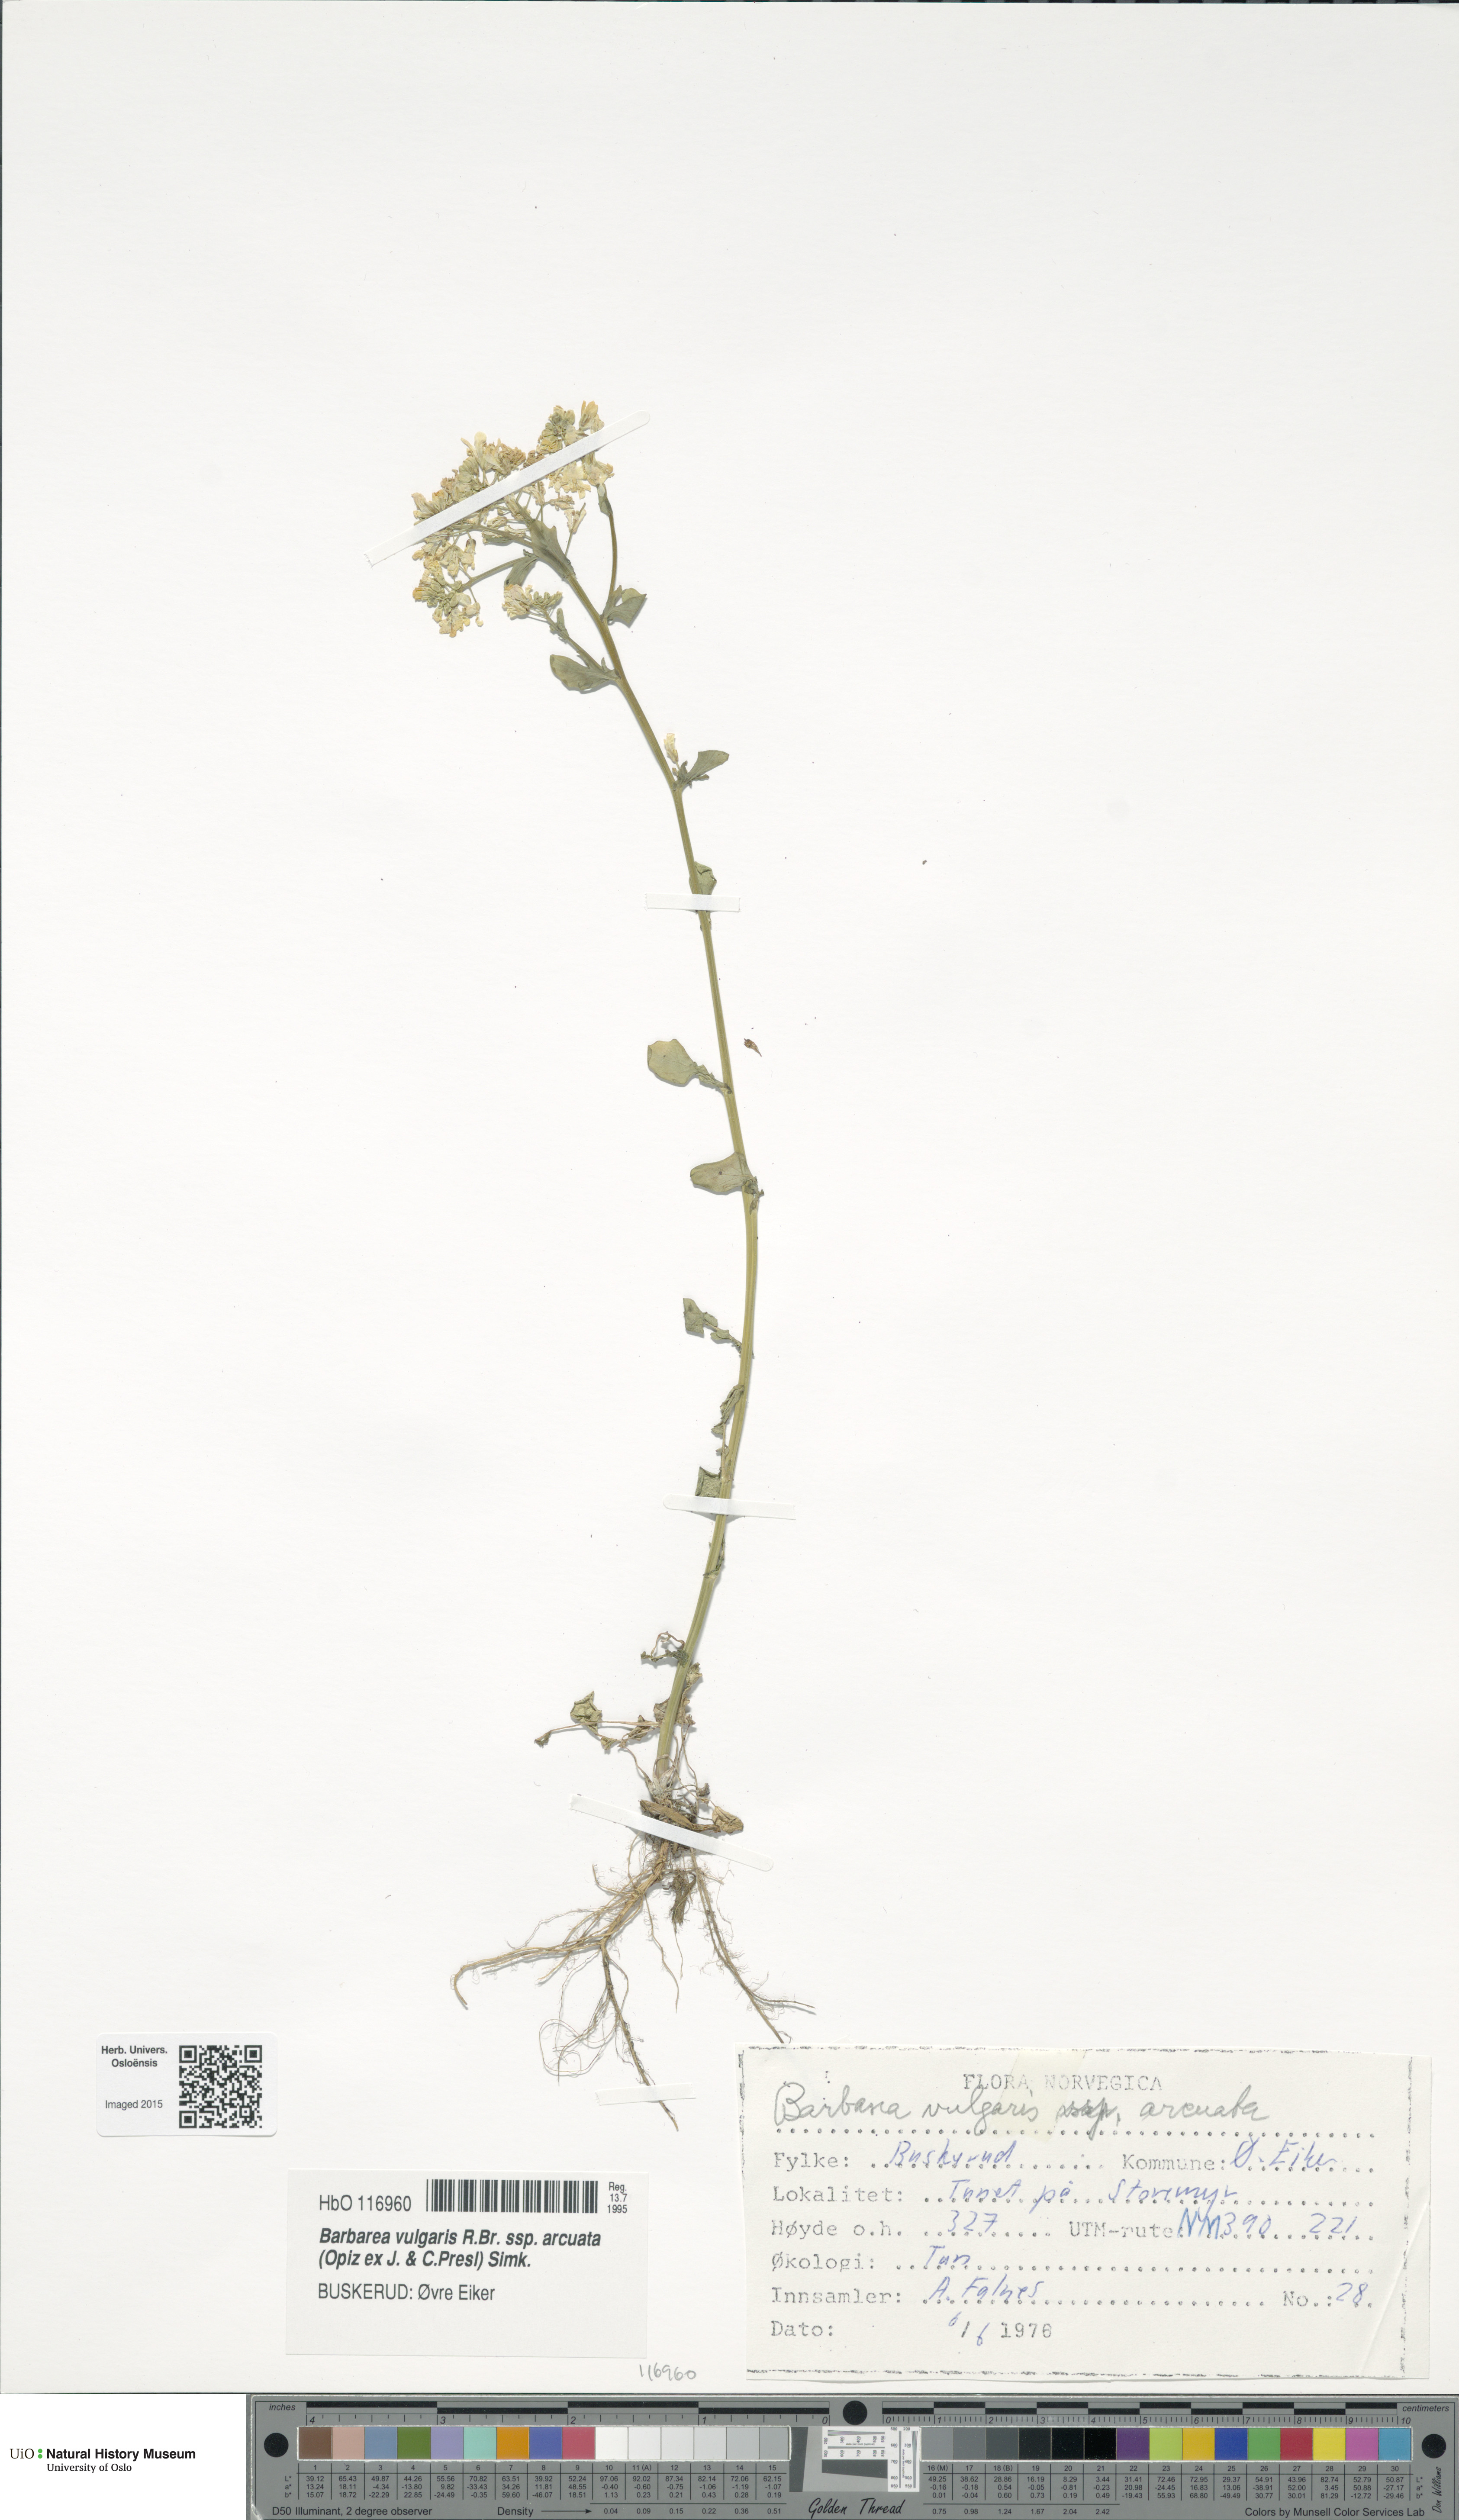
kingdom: Plantae
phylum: Tracheophyta
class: Magnoliopsida
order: Brassicales
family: Brassicaceae
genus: Barbarea
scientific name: Barbarea vulgaris
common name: Cressy-greens
